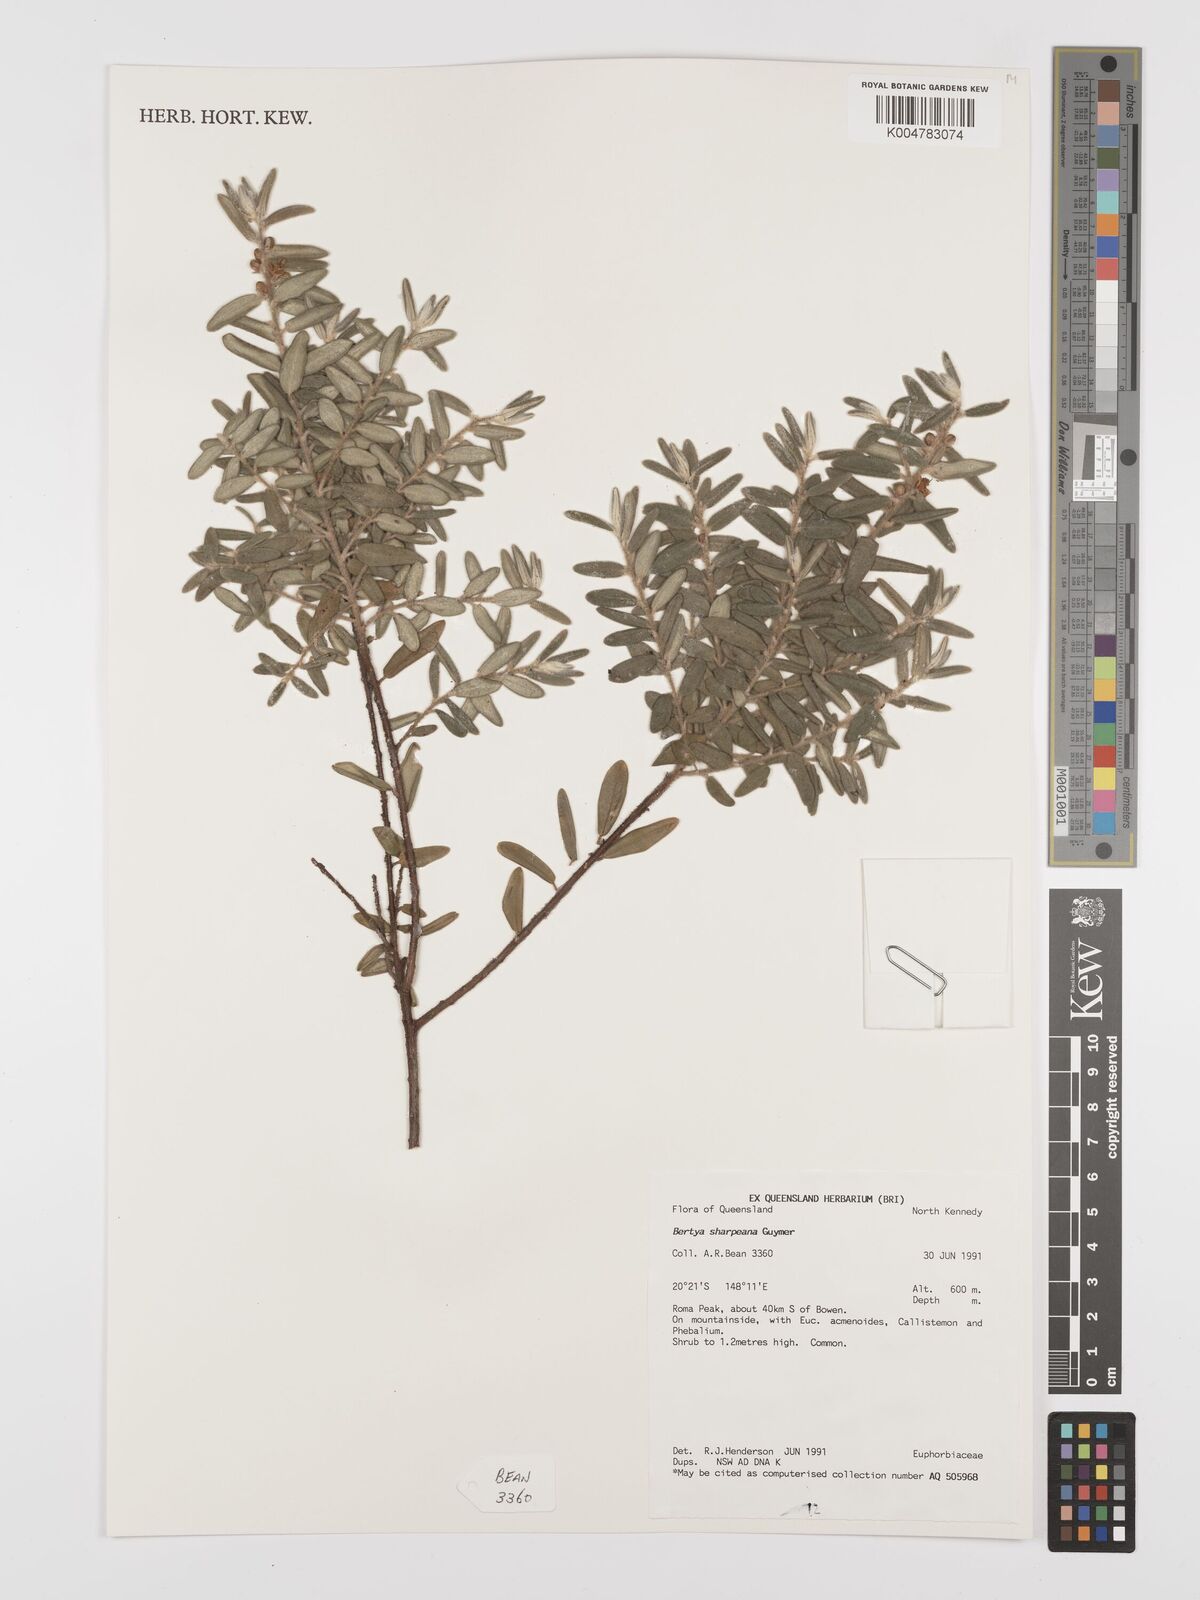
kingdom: Plantae
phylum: Tracheophyta
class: Magnoliopsida
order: Malpighiales
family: Euphorbiaceae
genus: Bertya
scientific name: Bertya sharpeana
